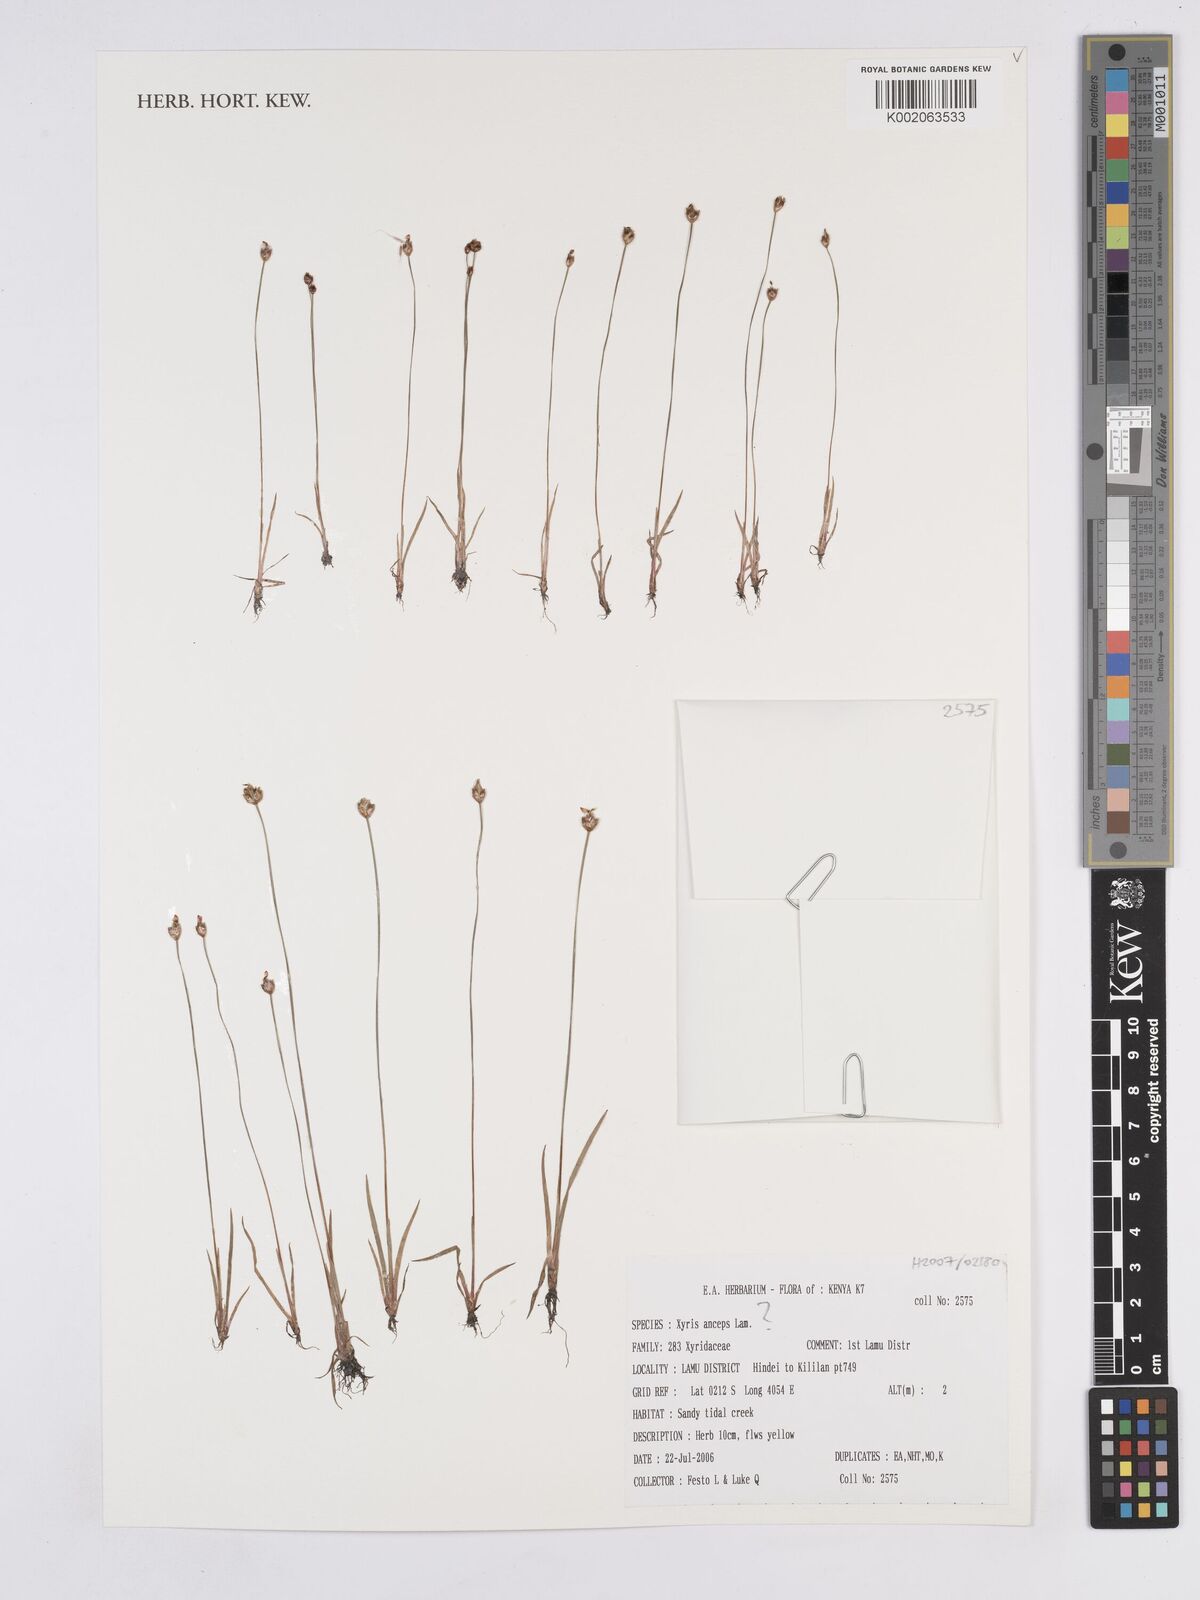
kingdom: Plantae
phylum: Tracheophyta
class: Liliopsida
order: Poales
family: Xyridaceae
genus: Xyris
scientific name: Xyris anceps
